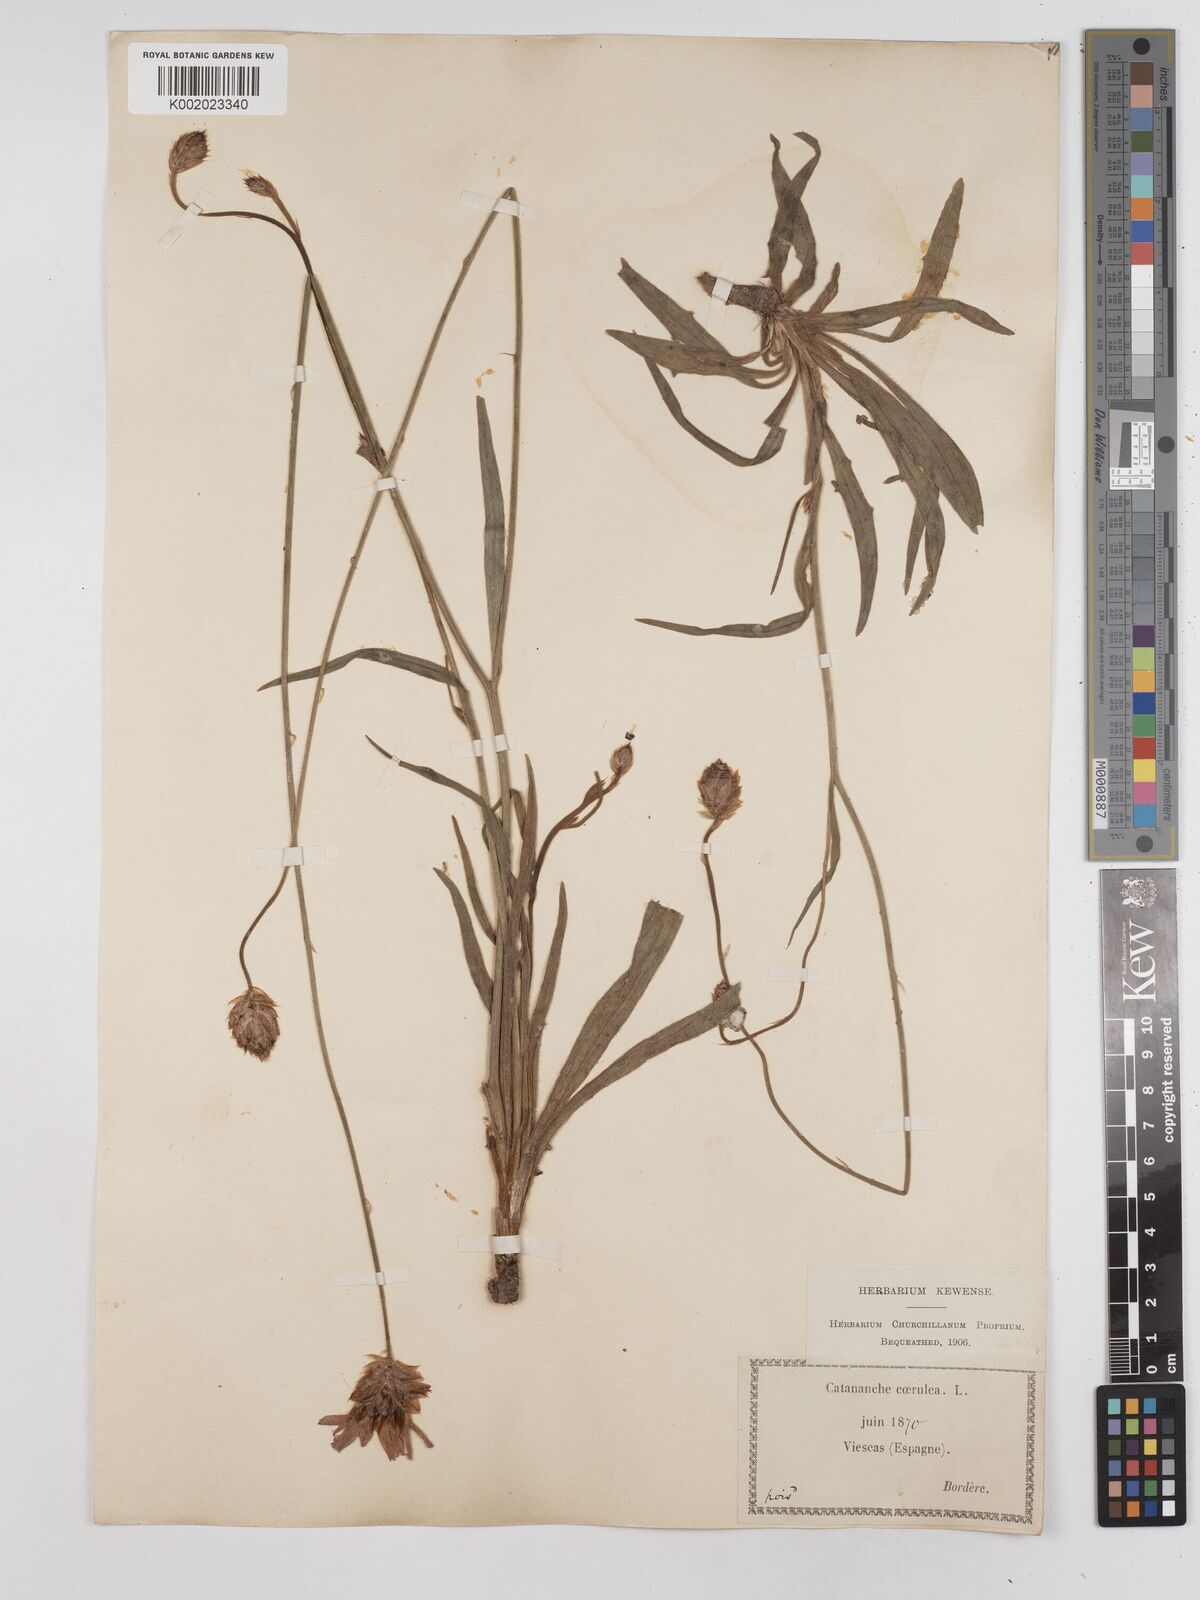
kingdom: Plantae
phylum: Tracheophyta
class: Magnoliopsida
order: Asterales
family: Asteraceae
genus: Catananche
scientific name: Catananche caerulea
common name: Blue cupidone
